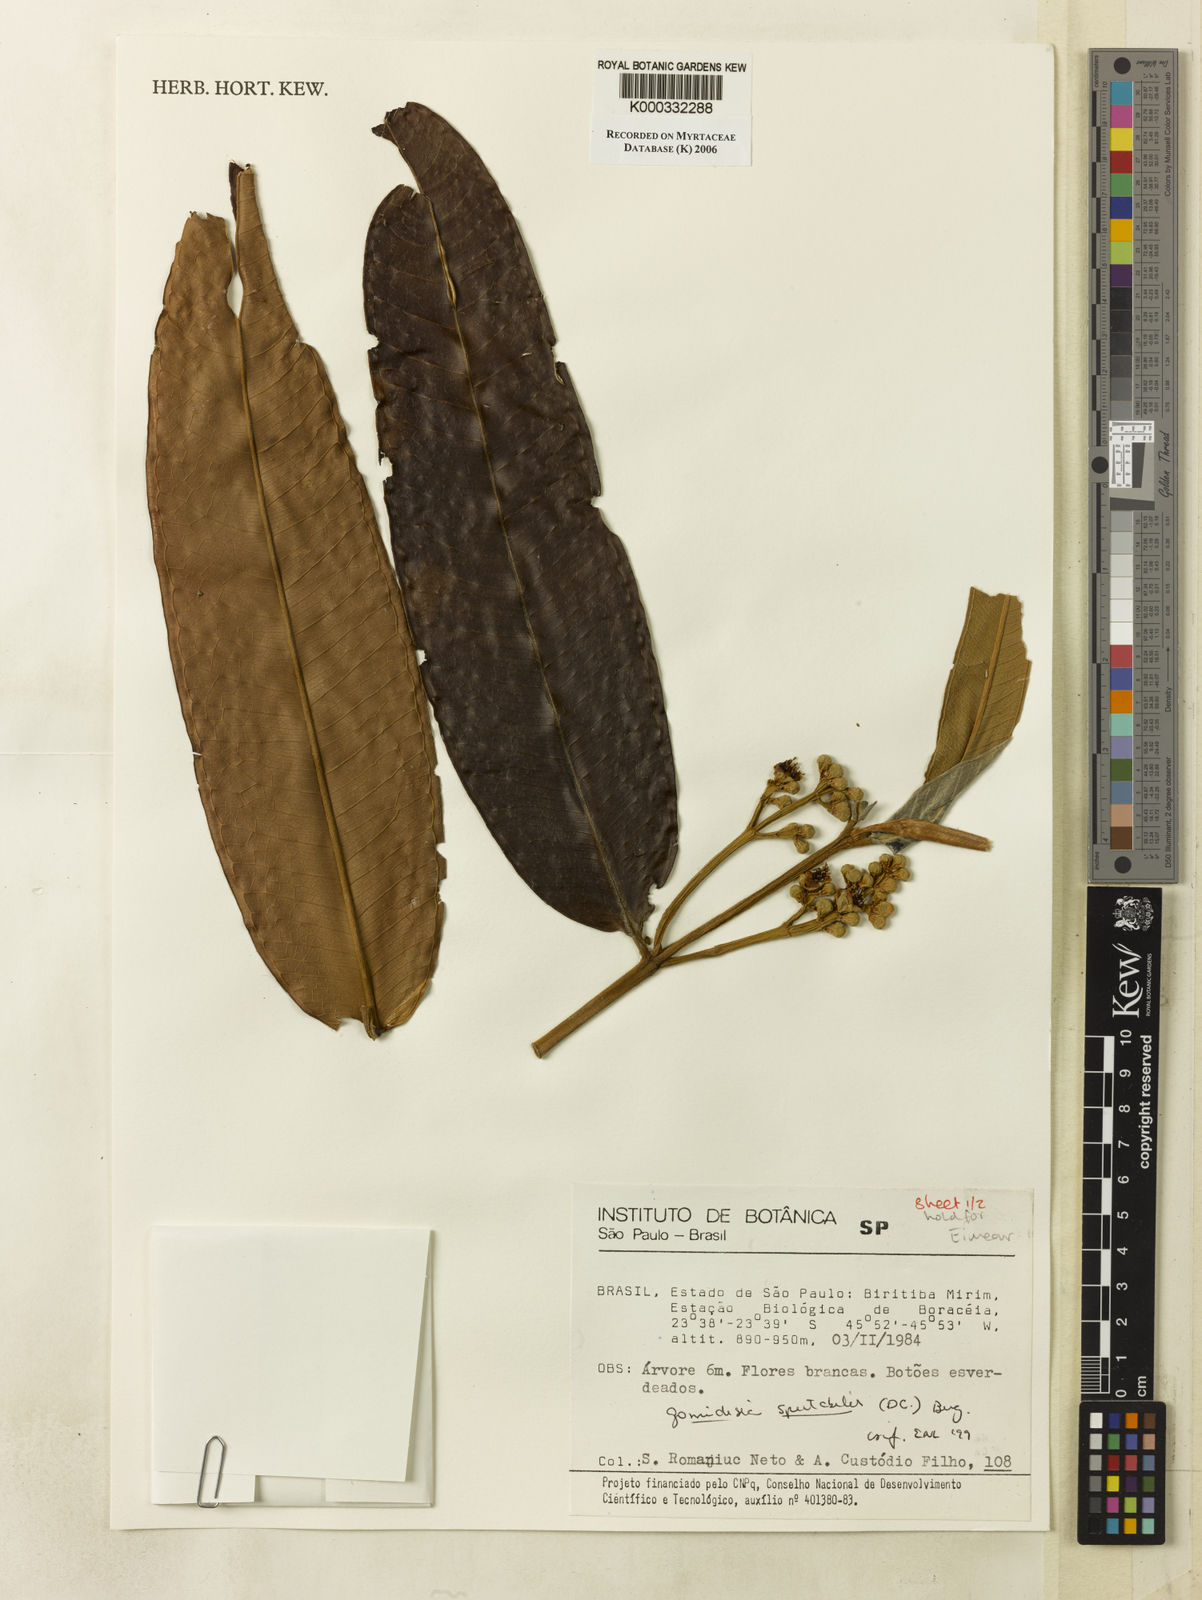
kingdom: Plantae
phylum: Tracheophyta
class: Magnoliopsida
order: Myrtales
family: Myrtaceae
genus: Myrcia
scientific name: Myrcia spectabilis
